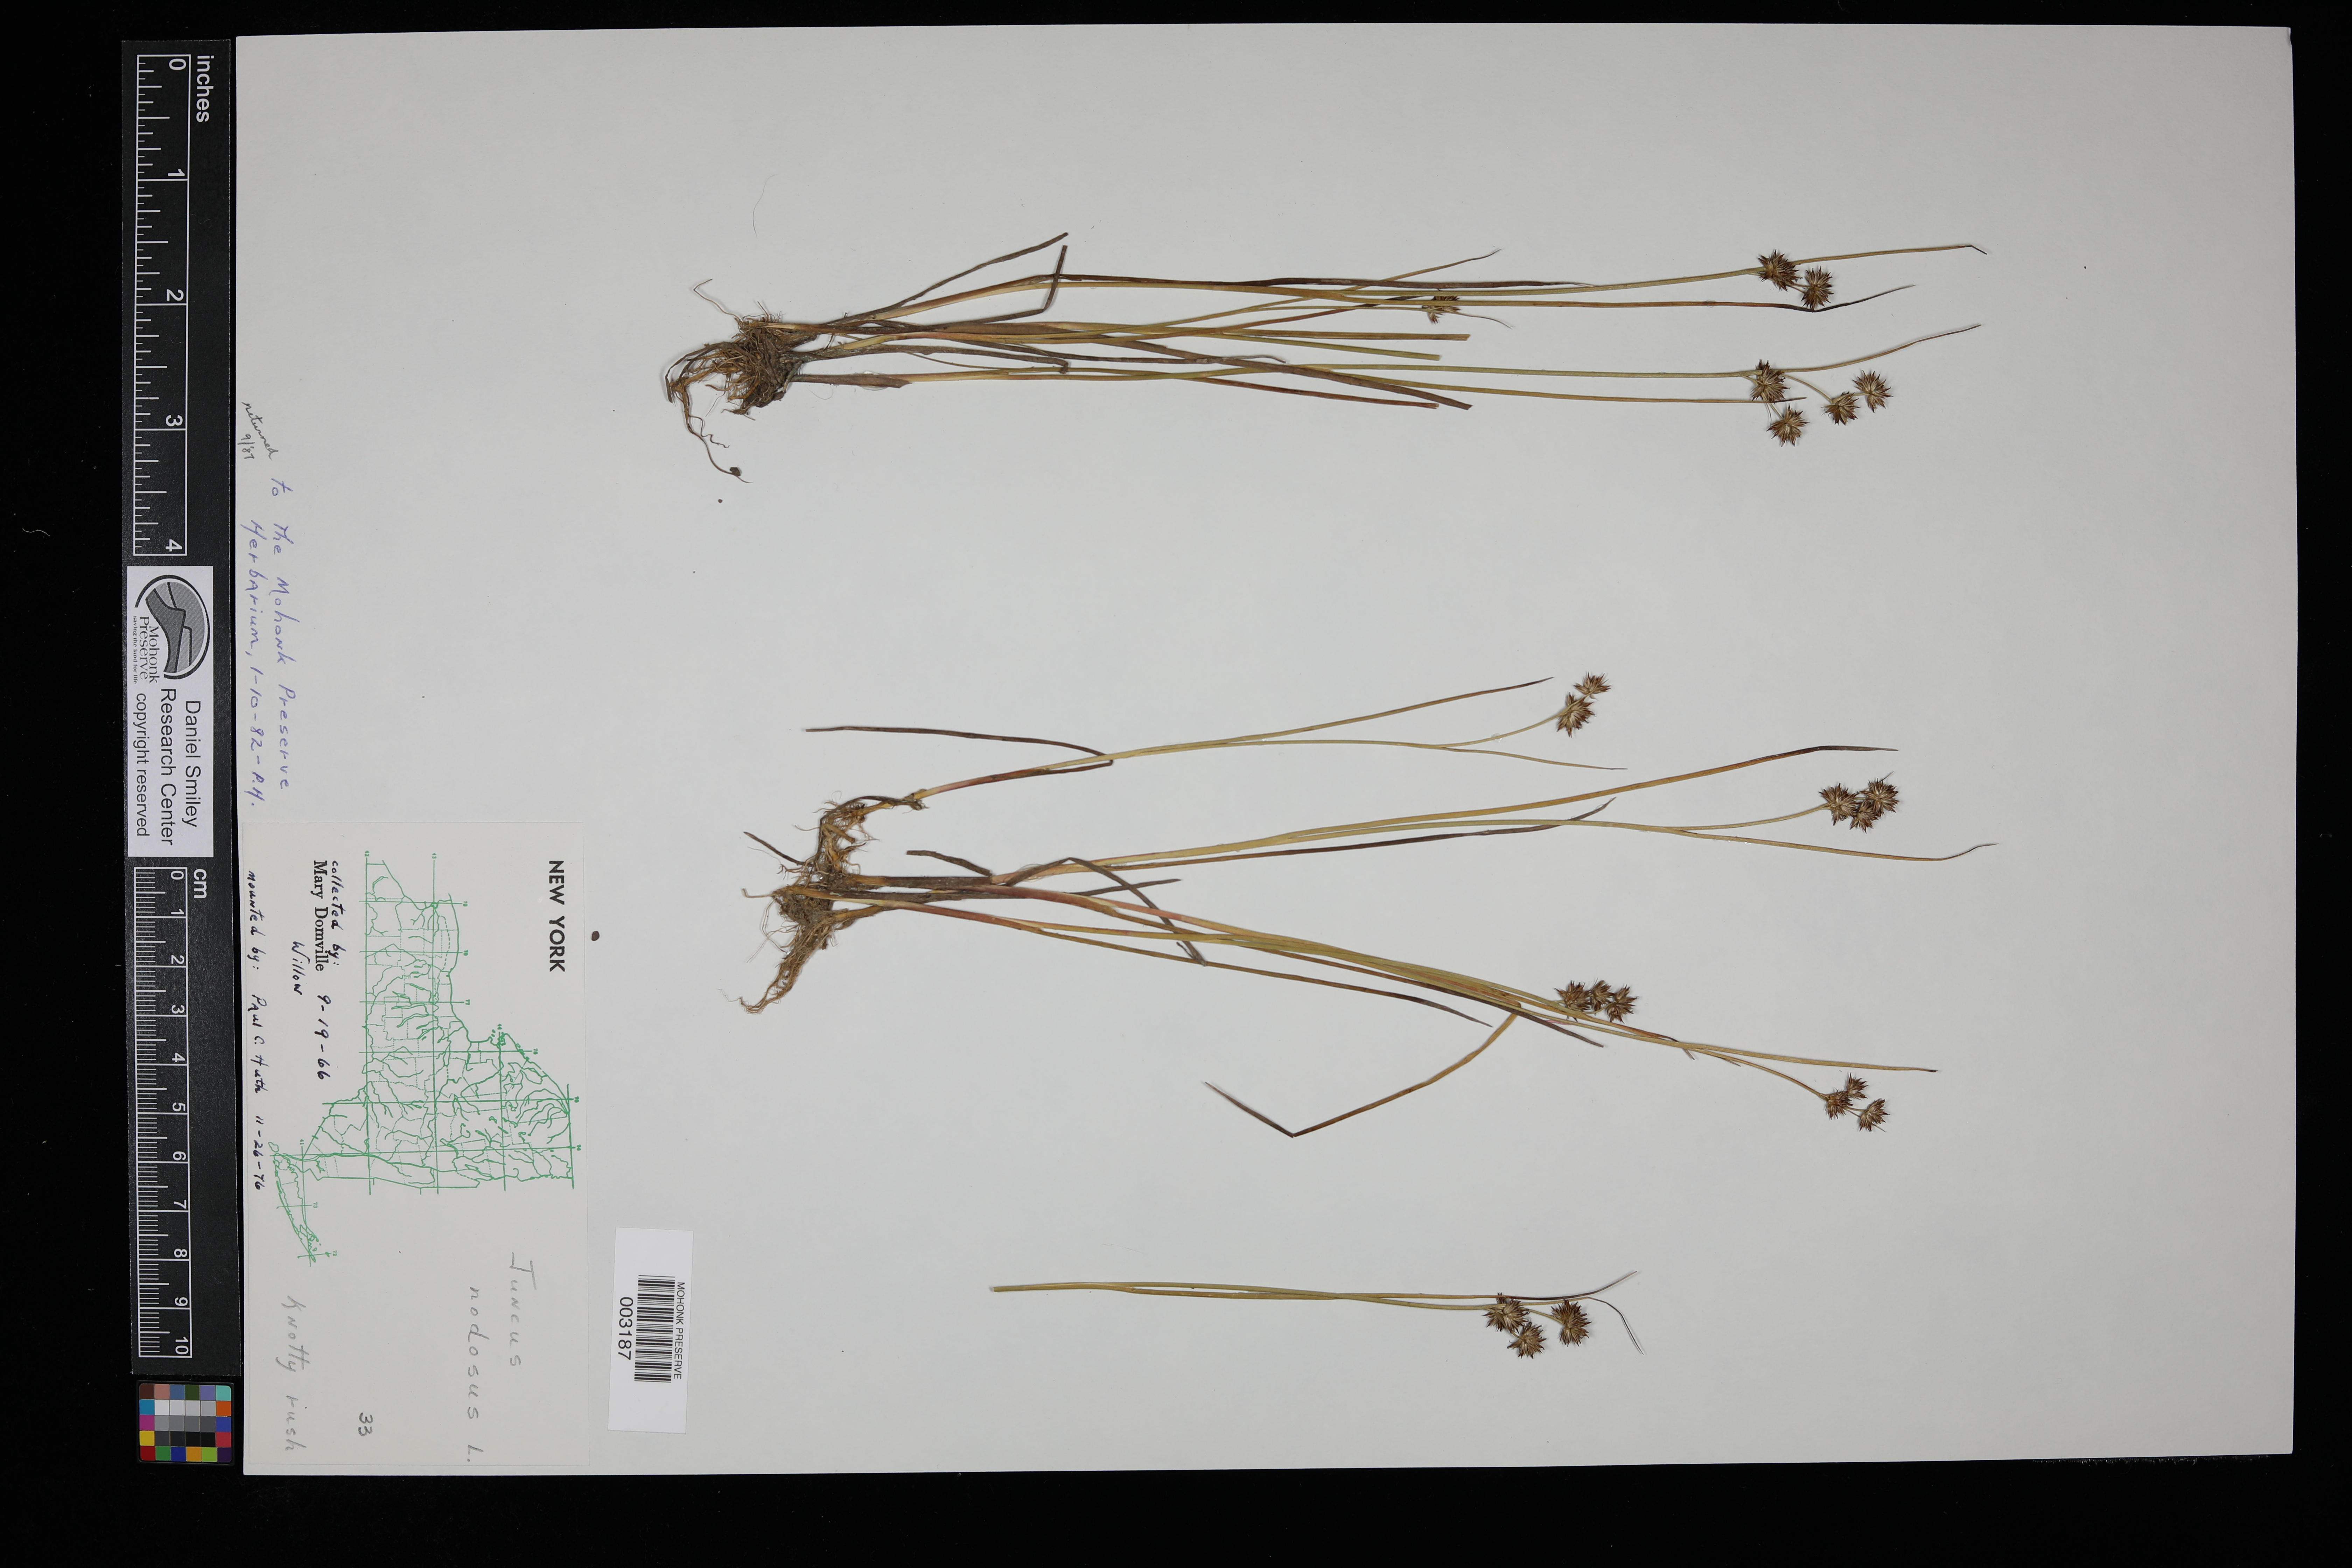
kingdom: Plantae
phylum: Tracheophyta
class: Liliopsida
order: Poales
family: Juncaceae
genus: Juncus
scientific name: Juncus nodosus
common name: Knotted rush
